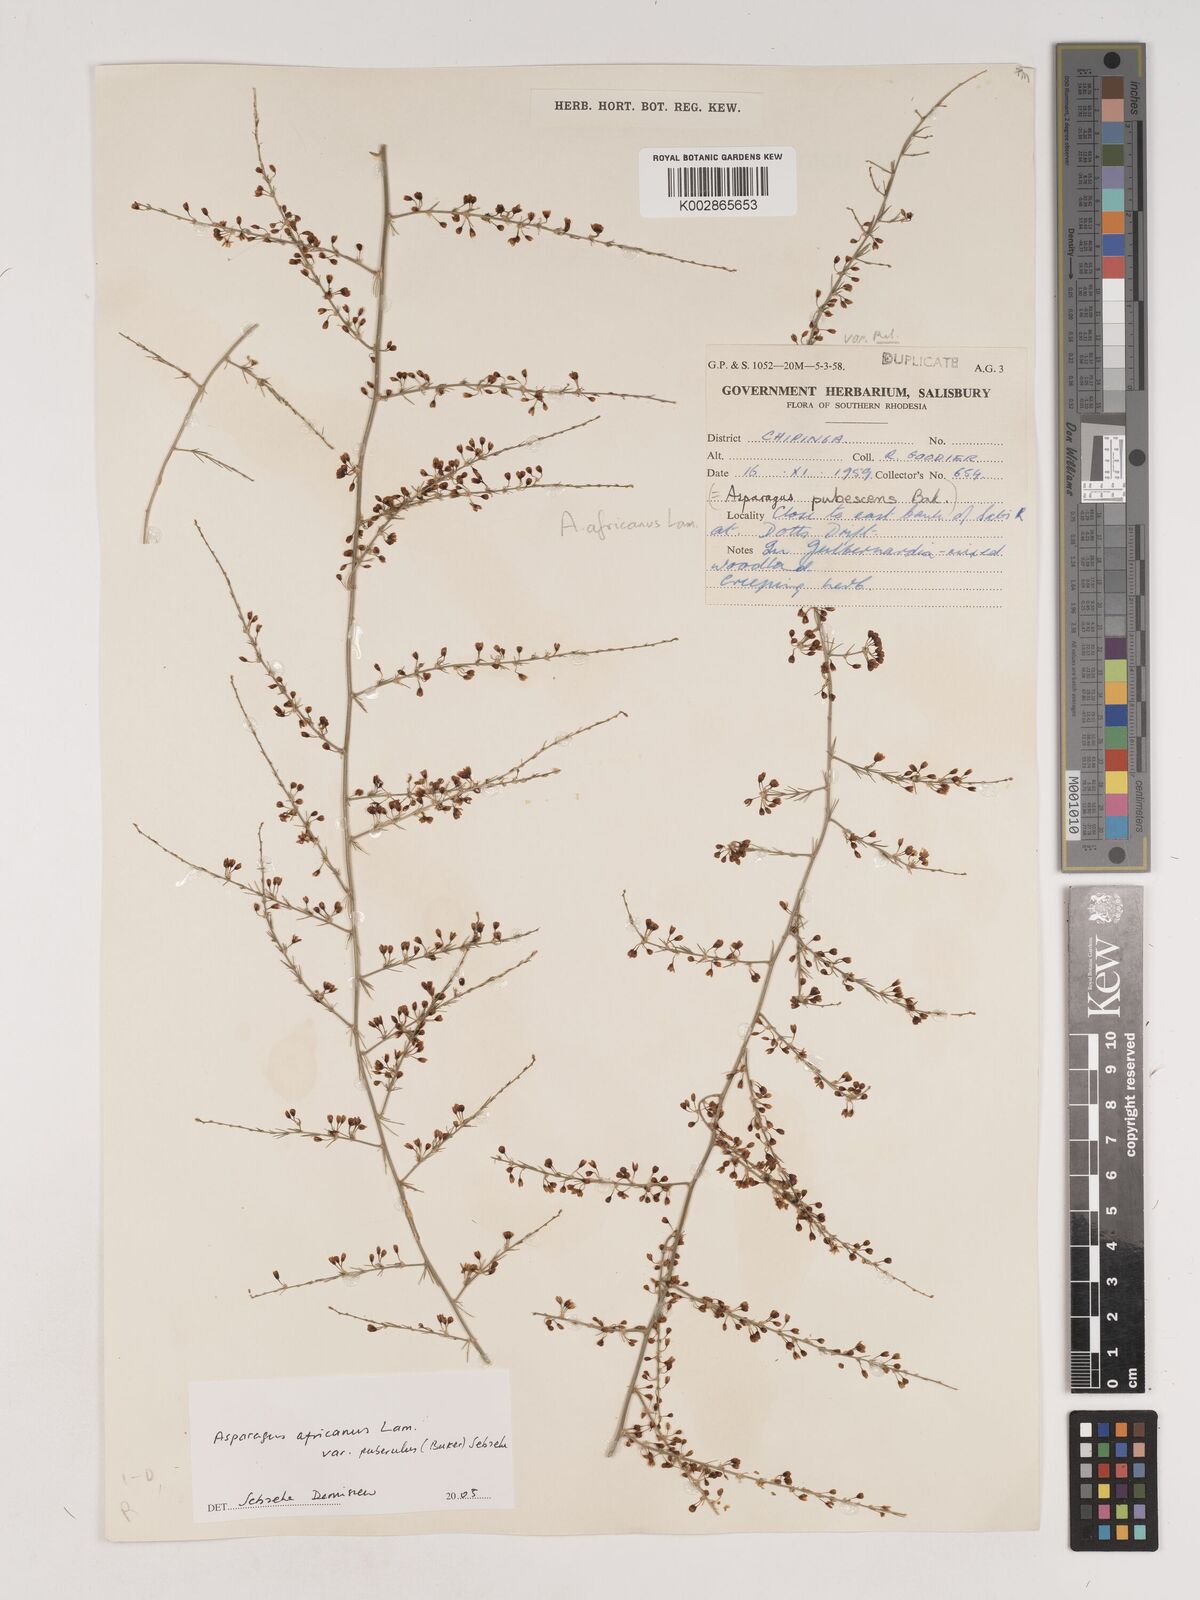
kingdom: Plantae
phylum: Tracheophyta
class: Liliopsida
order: Asparagales
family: Asparagaceae
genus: Asparagus
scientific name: Asparagus africanus
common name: Asparagus-fern
